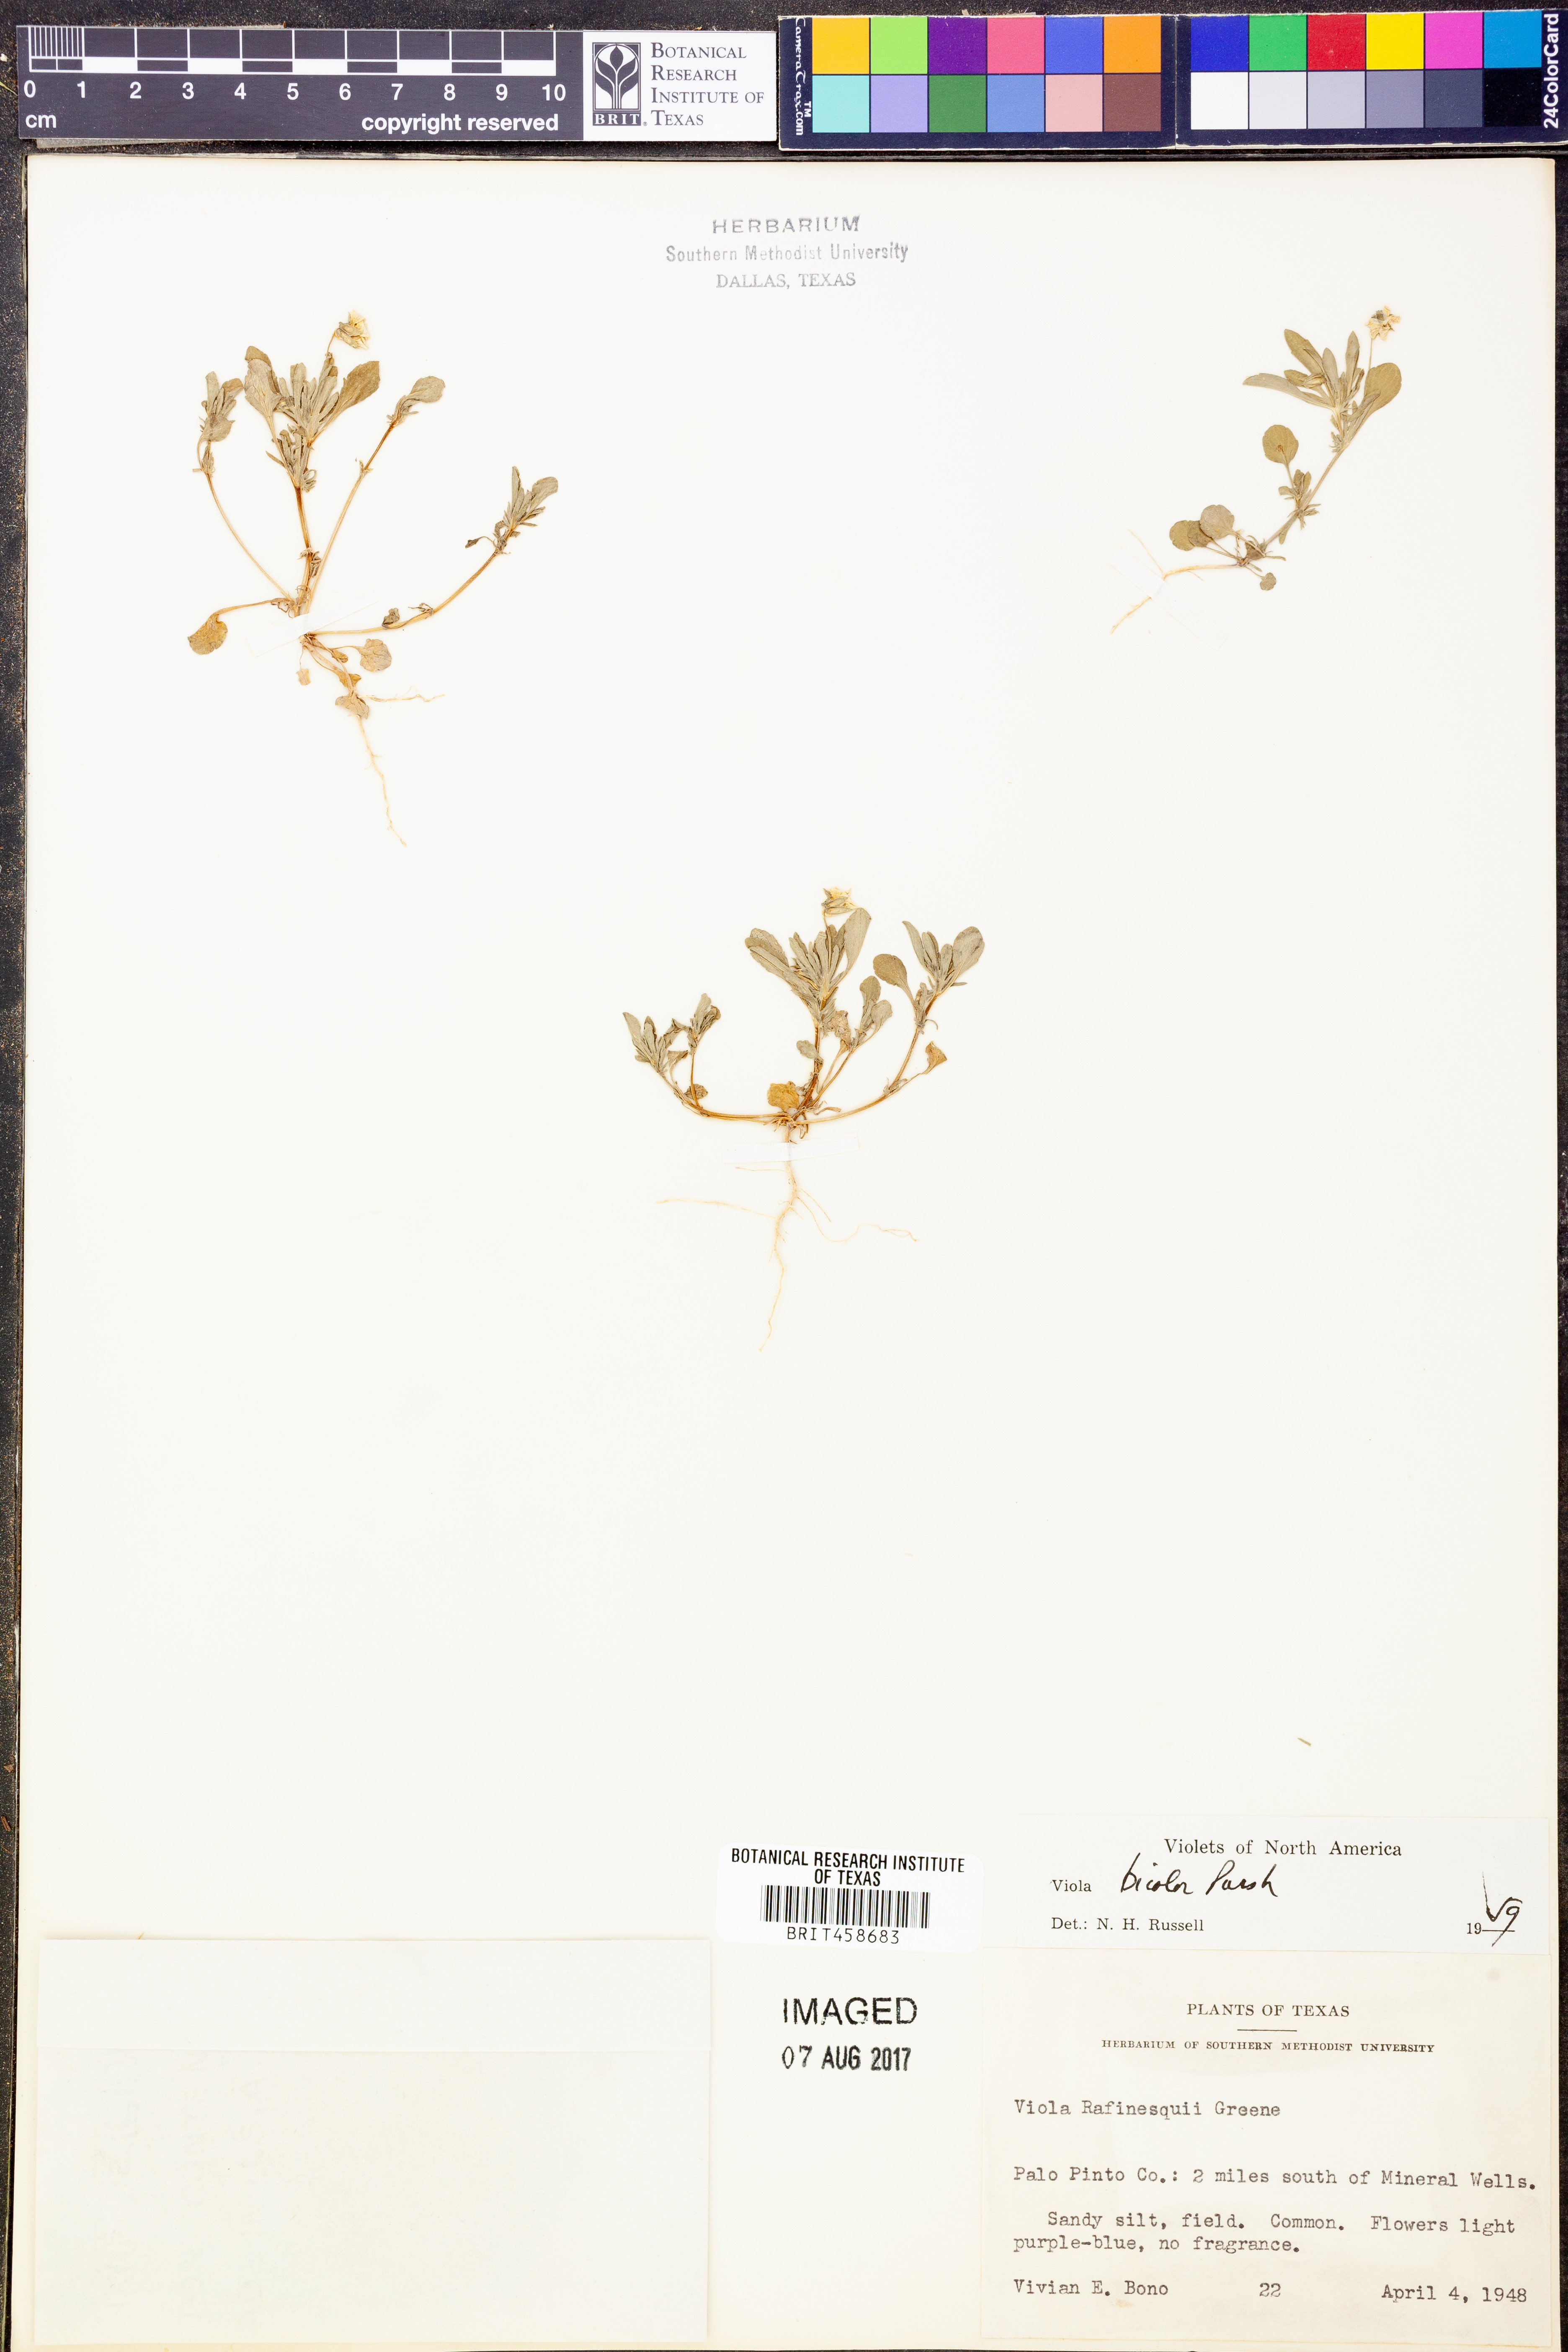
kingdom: Plantae
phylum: Tracheophyta
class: Magnoliopsida
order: Malpighiales
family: Violaceae
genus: Viola
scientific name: Viola rafinesquei
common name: American field pansy
